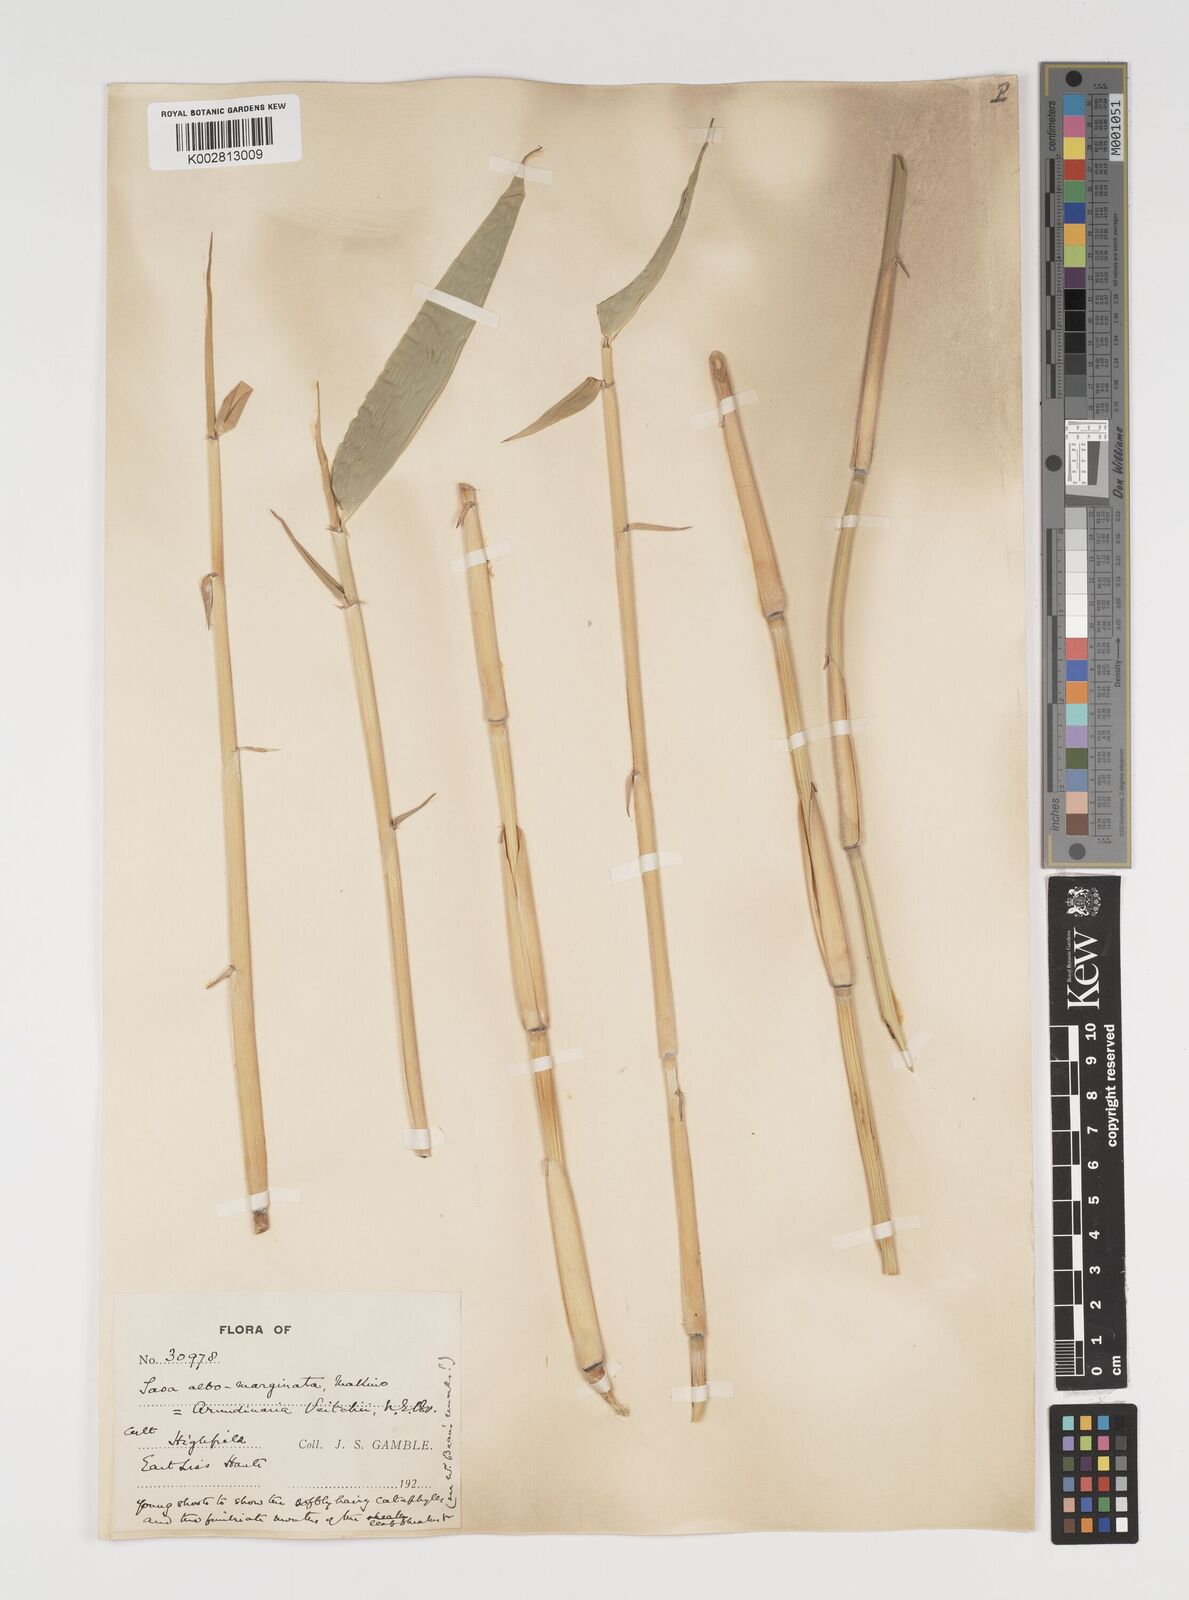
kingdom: Plantae
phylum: Tracheophyta
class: Liliopsida
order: Poales
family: Poaceae
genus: Sasa
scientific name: Sasa veitchii
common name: Veitch's bamboo
